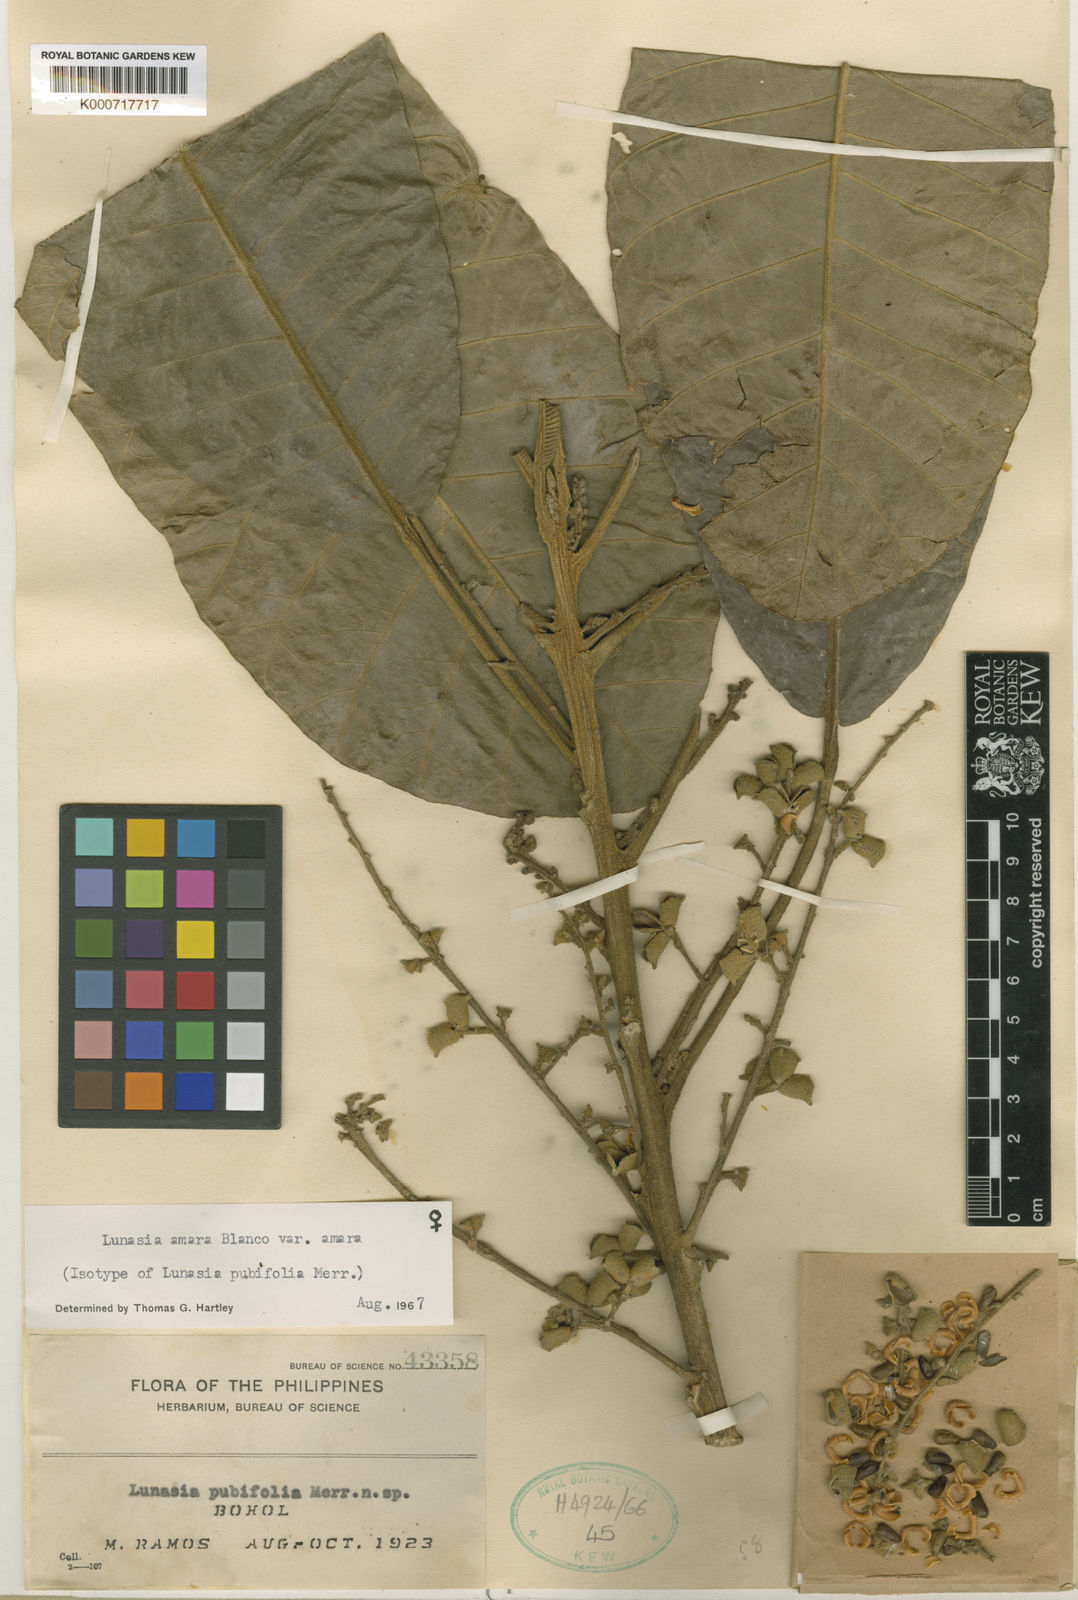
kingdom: Plantae
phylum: Tracheophyta
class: Magnoliopsida
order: Sapindales
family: Rutaceae
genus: Lunasia
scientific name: Lunasia amara
